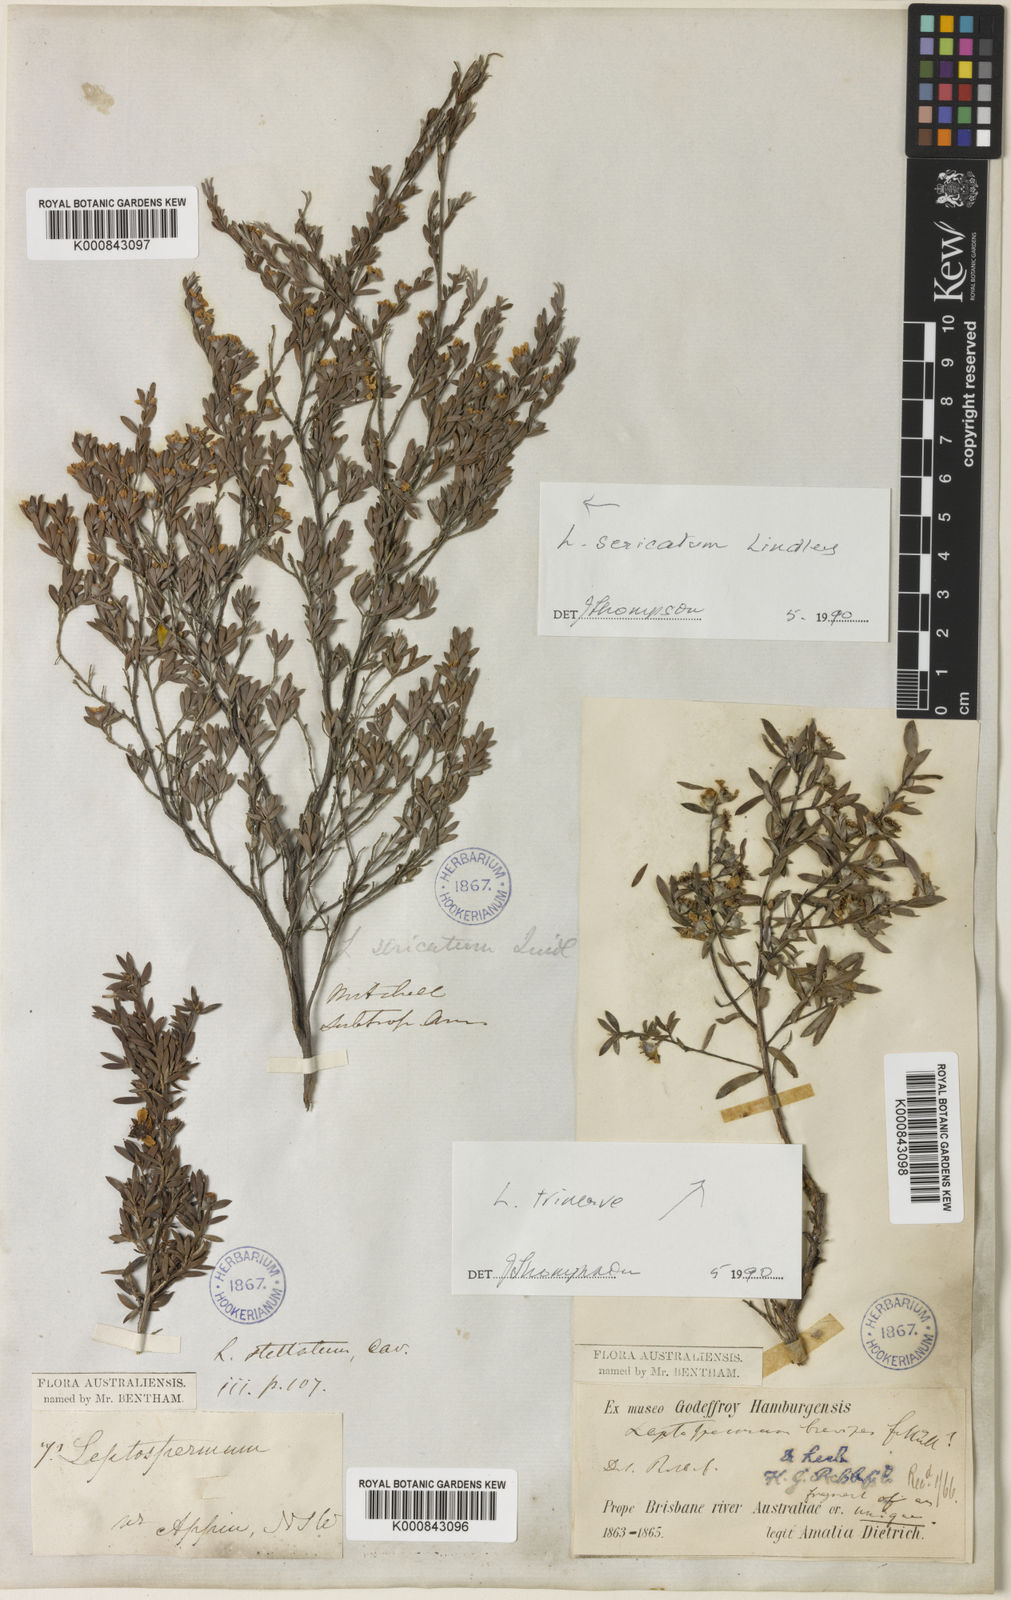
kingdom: Plantae
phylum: Tracheophyta
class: Magnoliopsida
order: Myrtales
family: Myrtaceae
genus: Leptospermum
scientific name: Leptospermum sericatum
